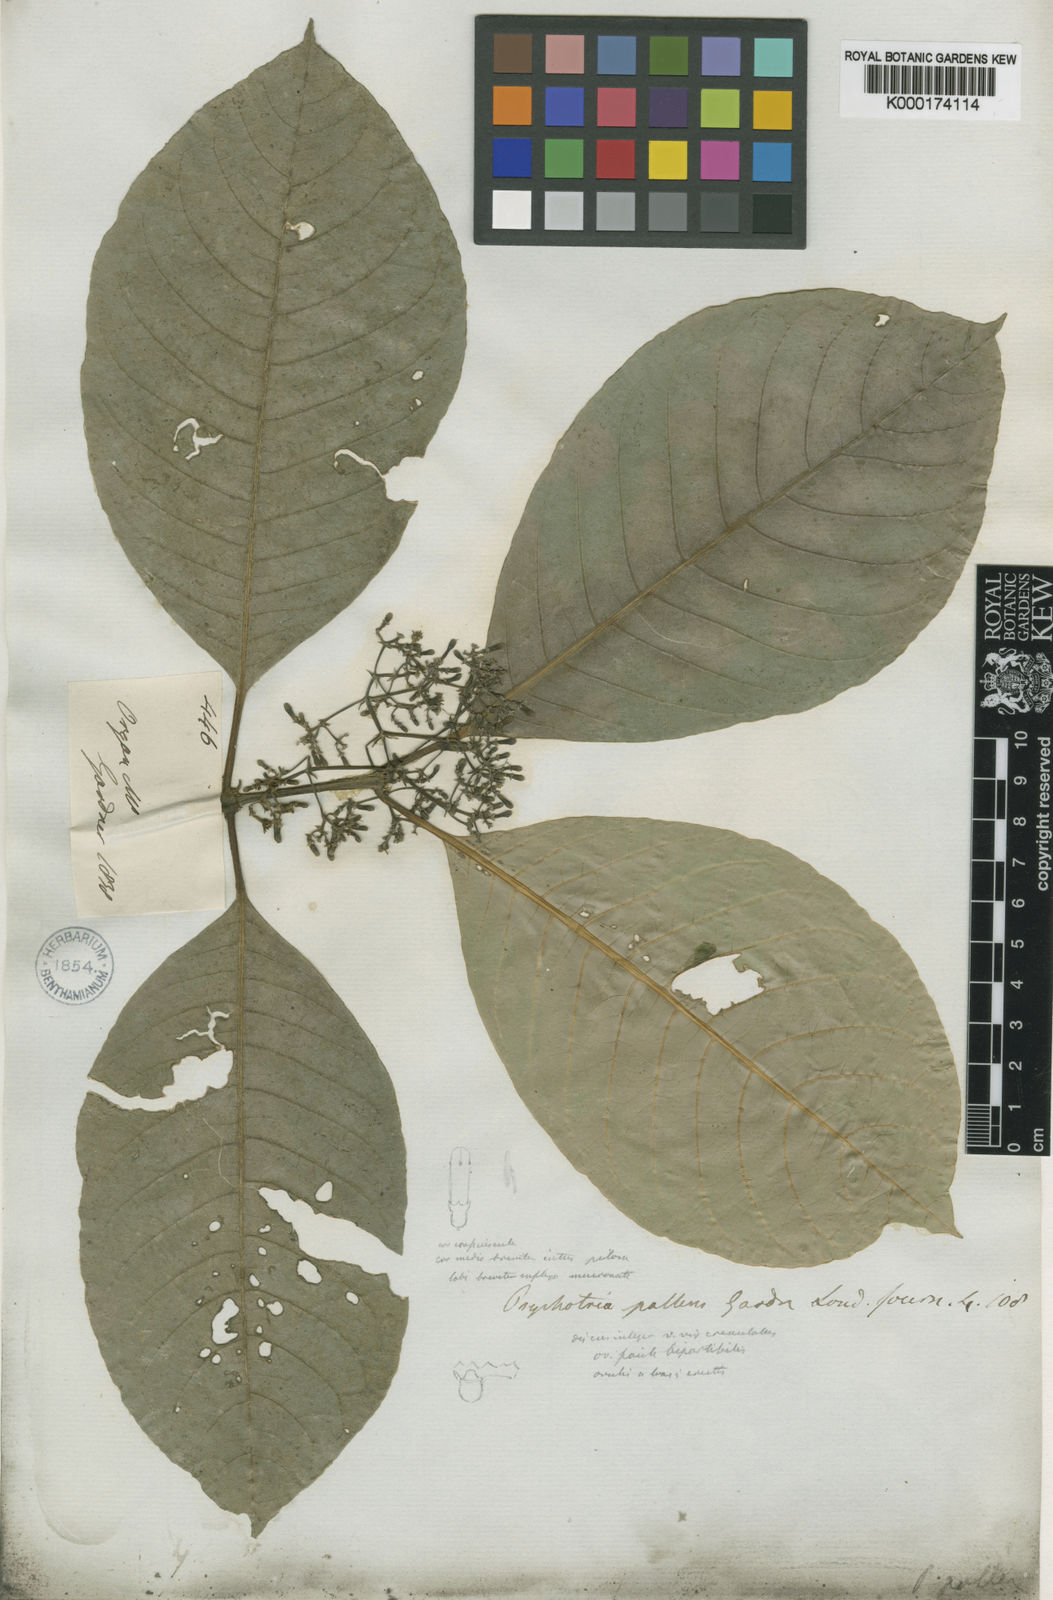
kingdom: Plantae
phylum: Tracheophyta
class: Magnoliopsida
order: Gentianales
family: Rubiaceae
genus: Psychotria
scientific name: Psychotria pallens
